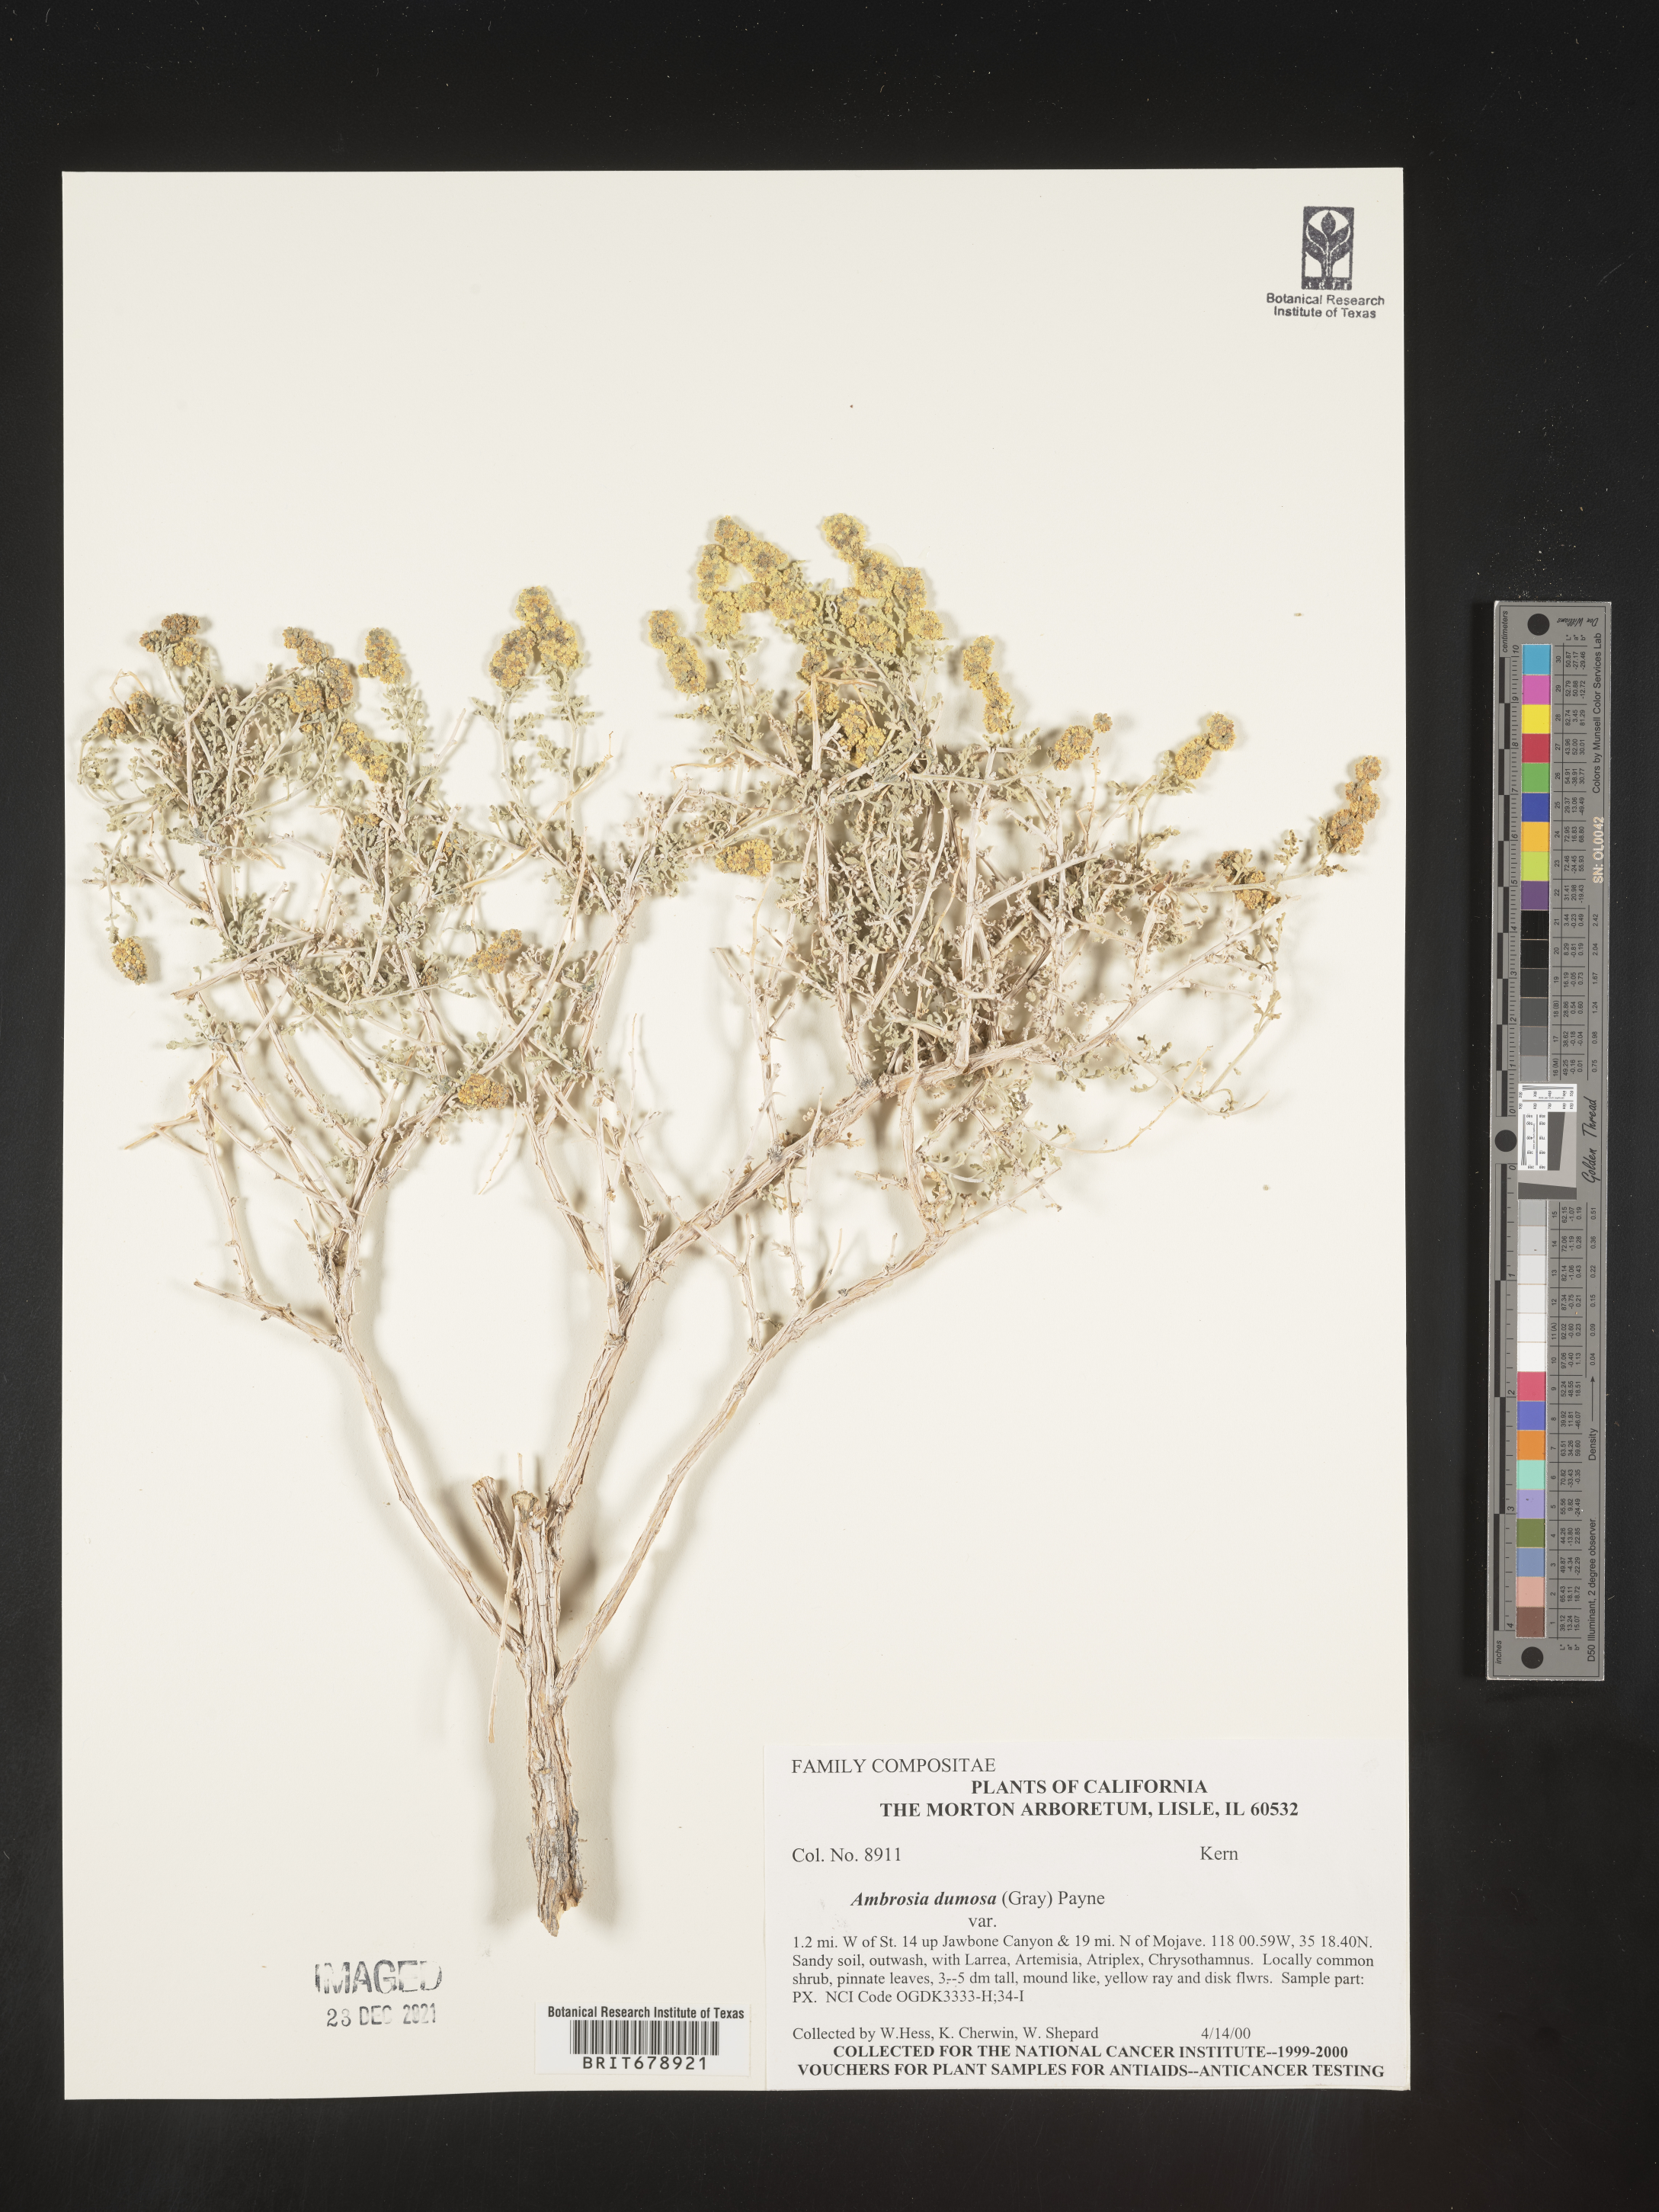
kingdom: Plantae
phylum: Tracheophyta
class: Magnoliopsida
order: Asterales
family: Asteraceae
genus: Ambrosia
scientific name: Ambrosia dumosa
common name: Bur-sage
